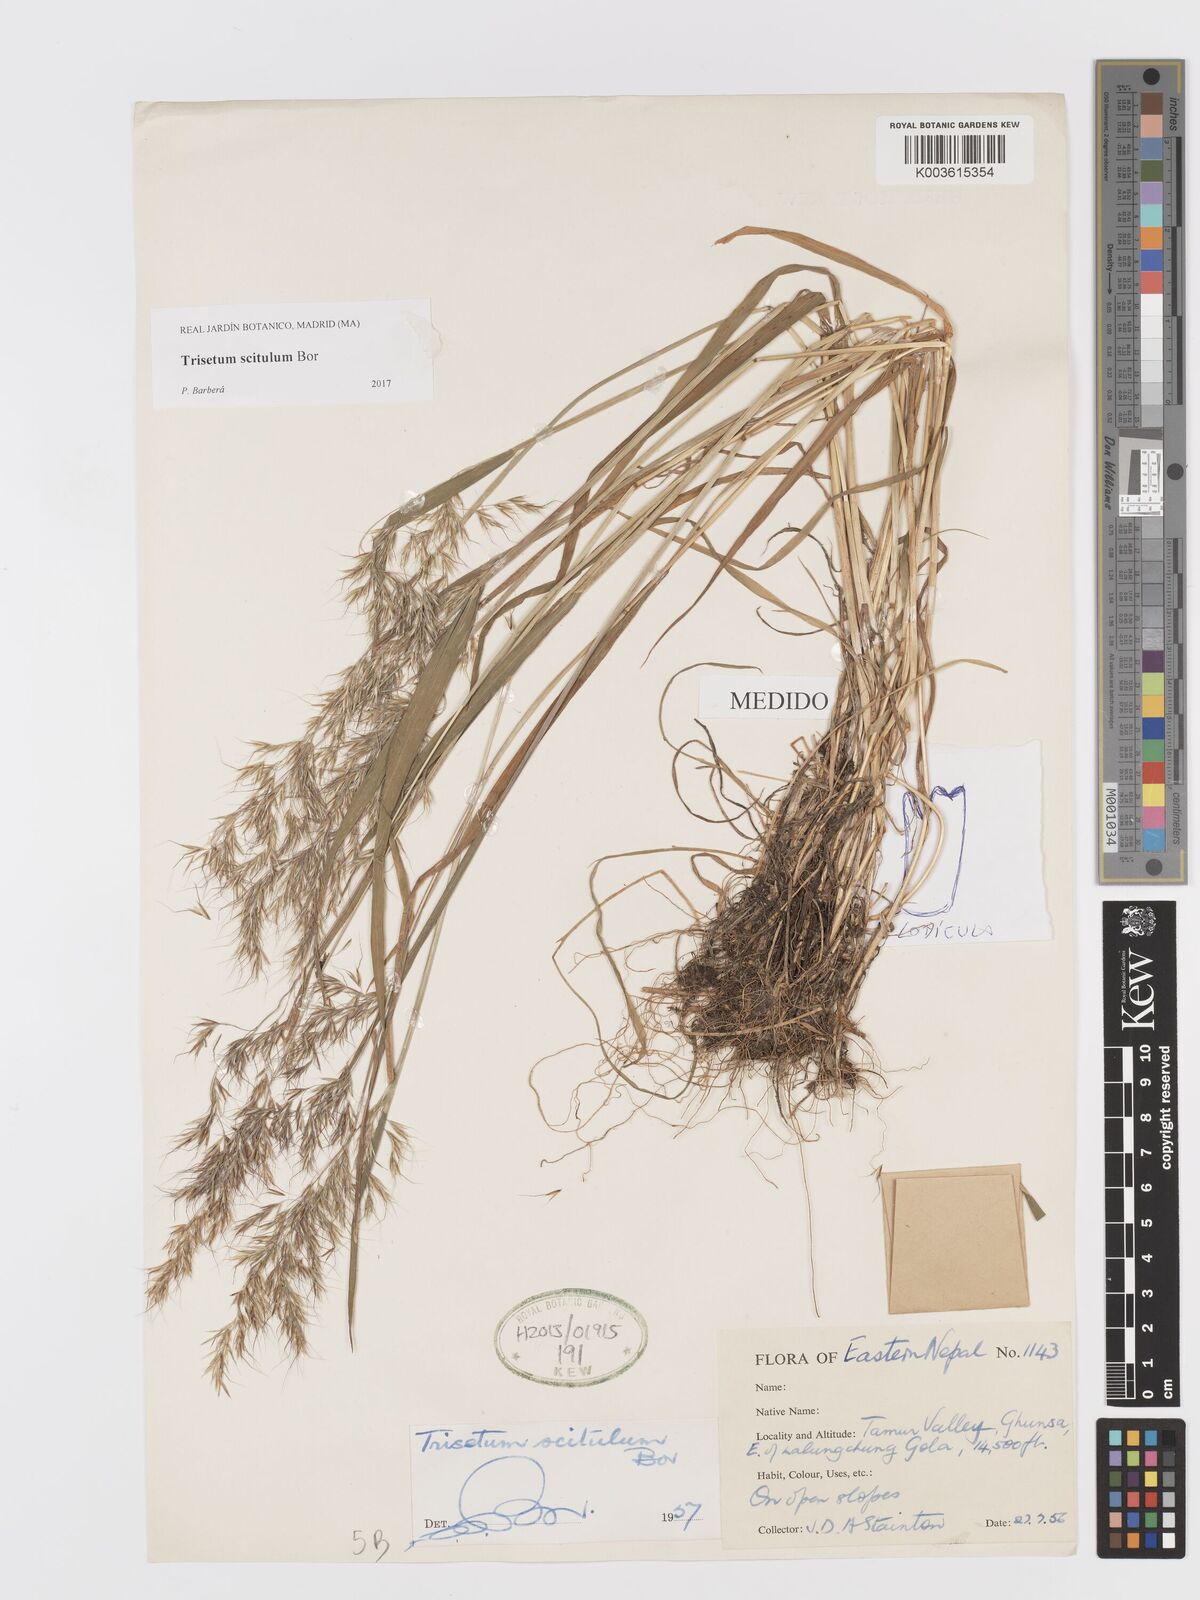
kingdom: Plantae
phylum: Tracheophyta
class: Liliopsida
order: Poales
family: Poaceae
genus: Sibirotrisetum
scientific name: Sibirotrisetum scitulum
